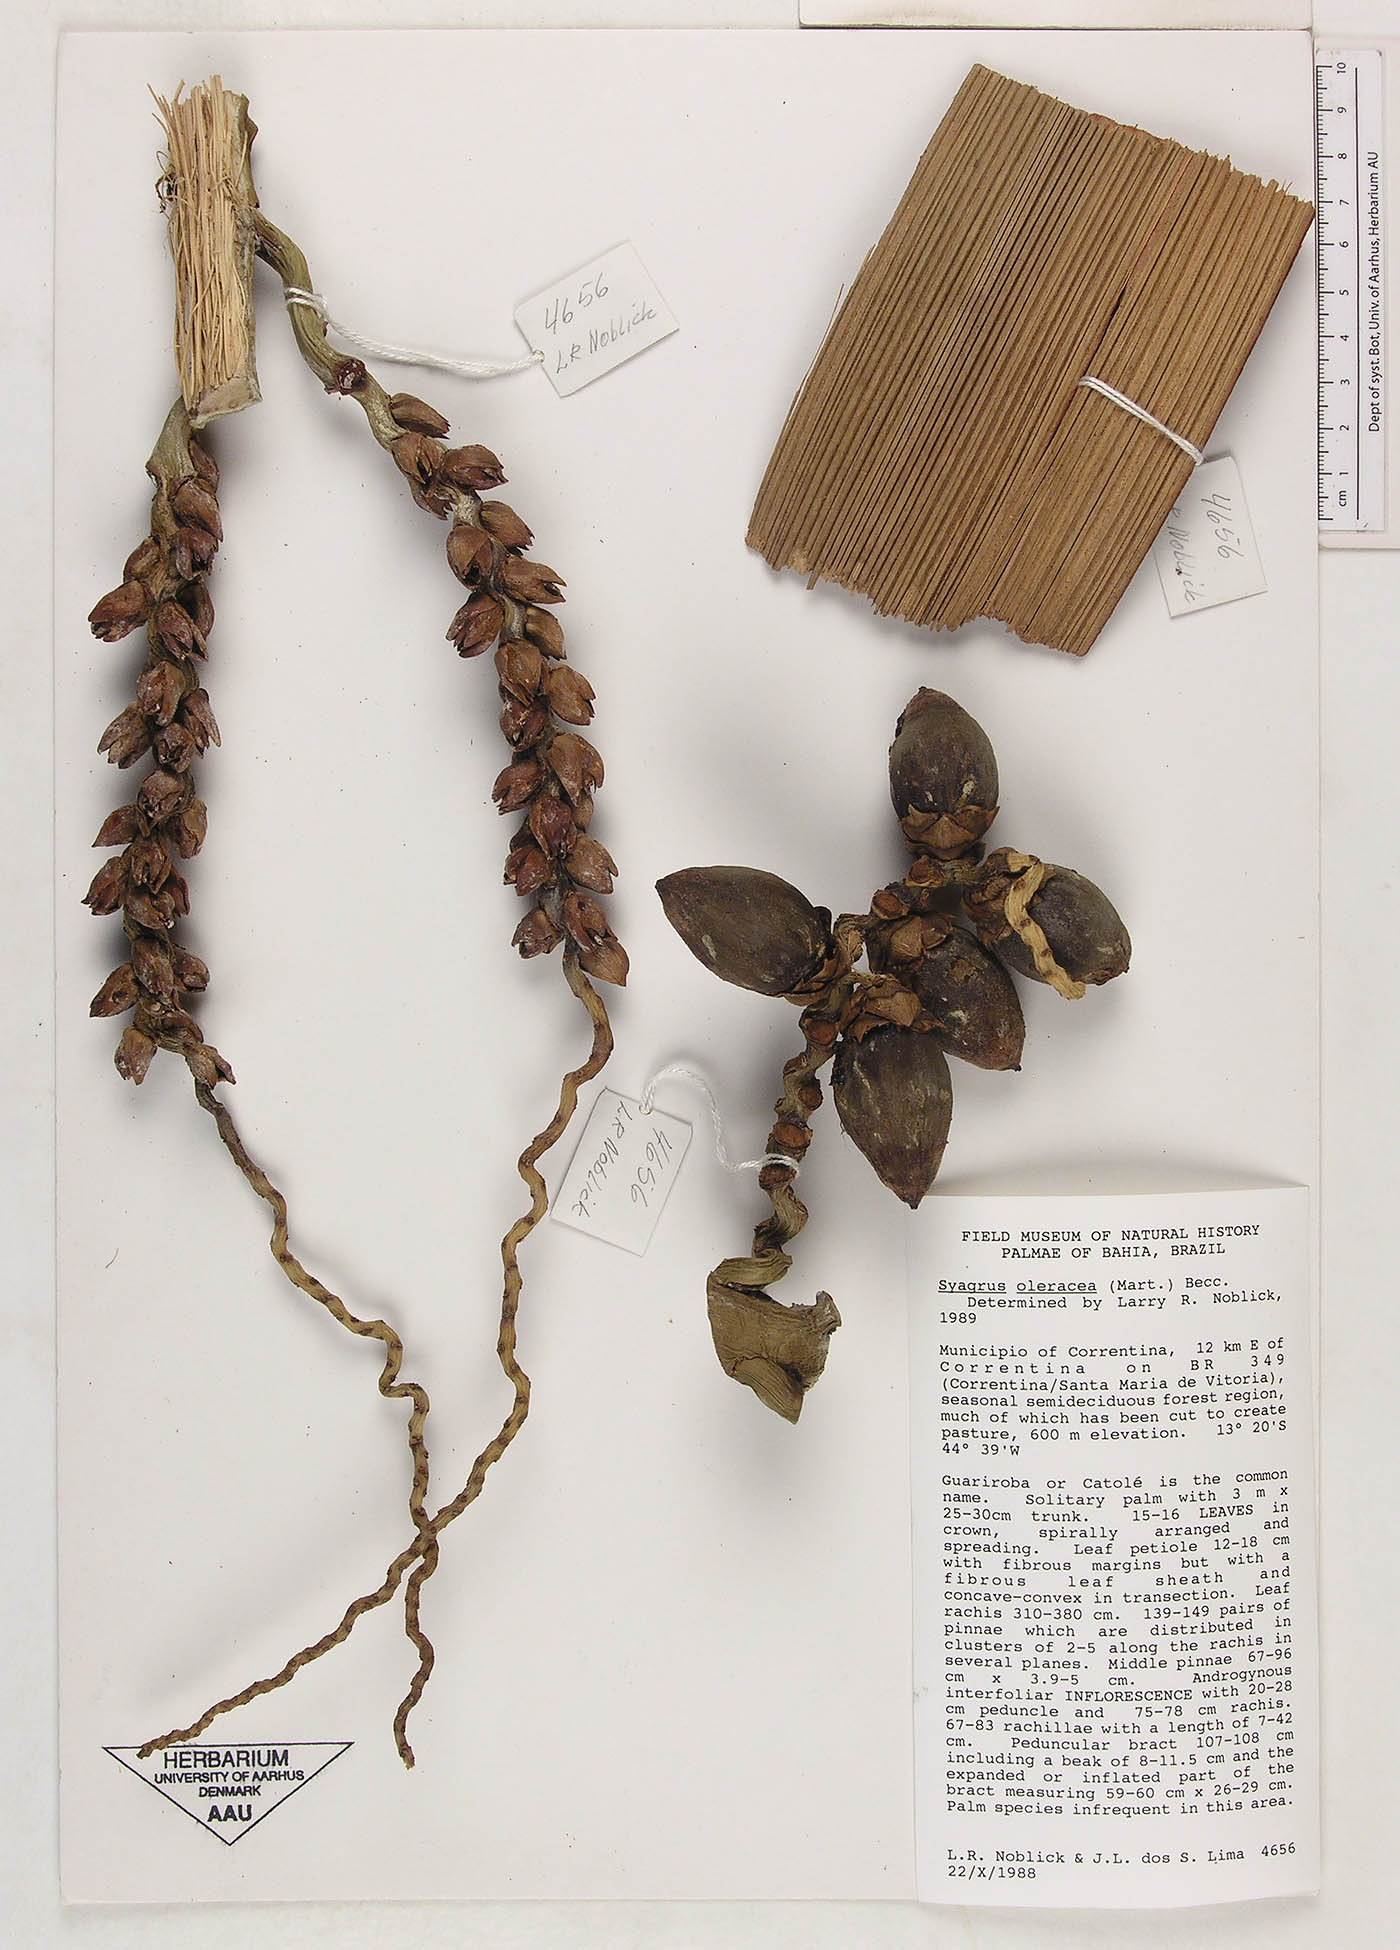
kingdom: Plantae
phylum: Tracheophyta
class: Liliopsida
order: Arecales
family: Arecaceae
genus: Syagrus
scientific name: Syagrus oleracea
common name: Catole palm
